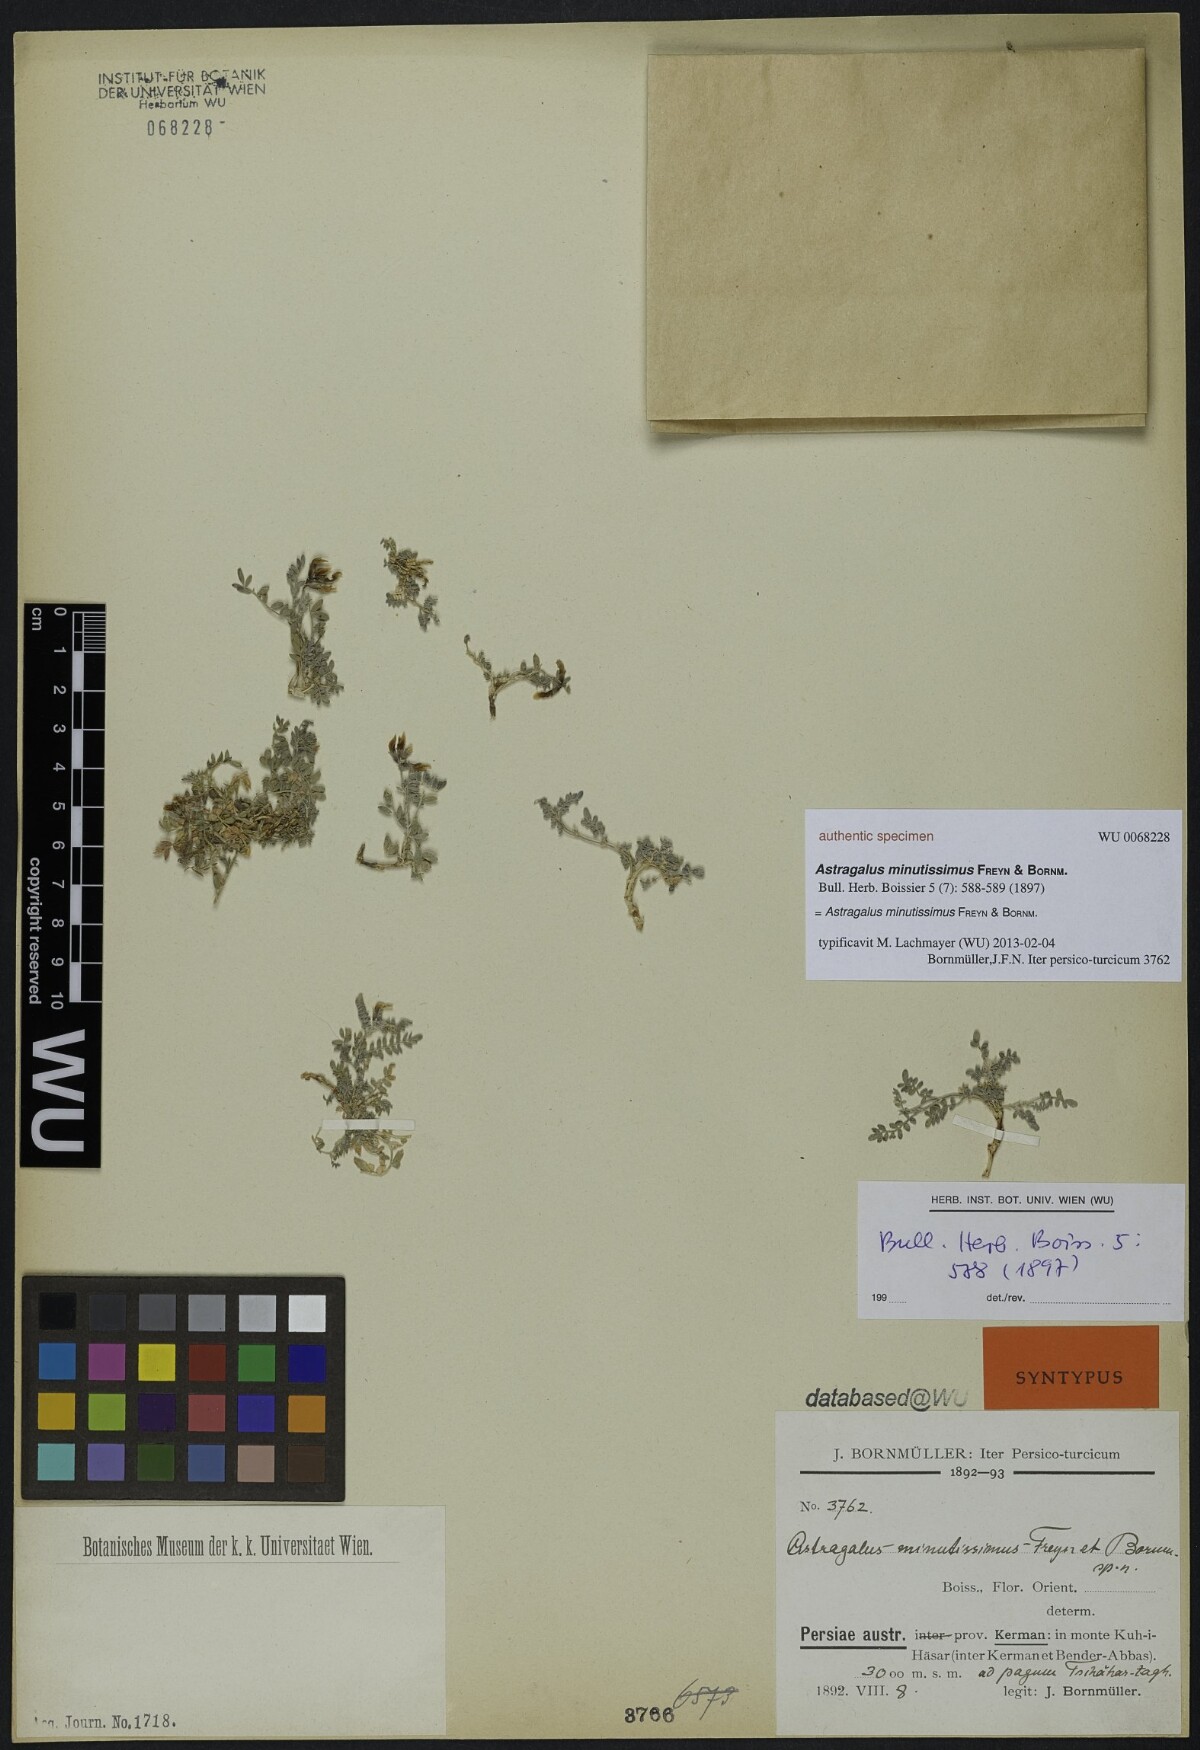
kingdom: Plantae
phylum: Tracheophyta
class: Magnoliopsida
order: Fabales
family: Fabaceae
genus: Astragalus
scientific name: Astragalus confertiformis
